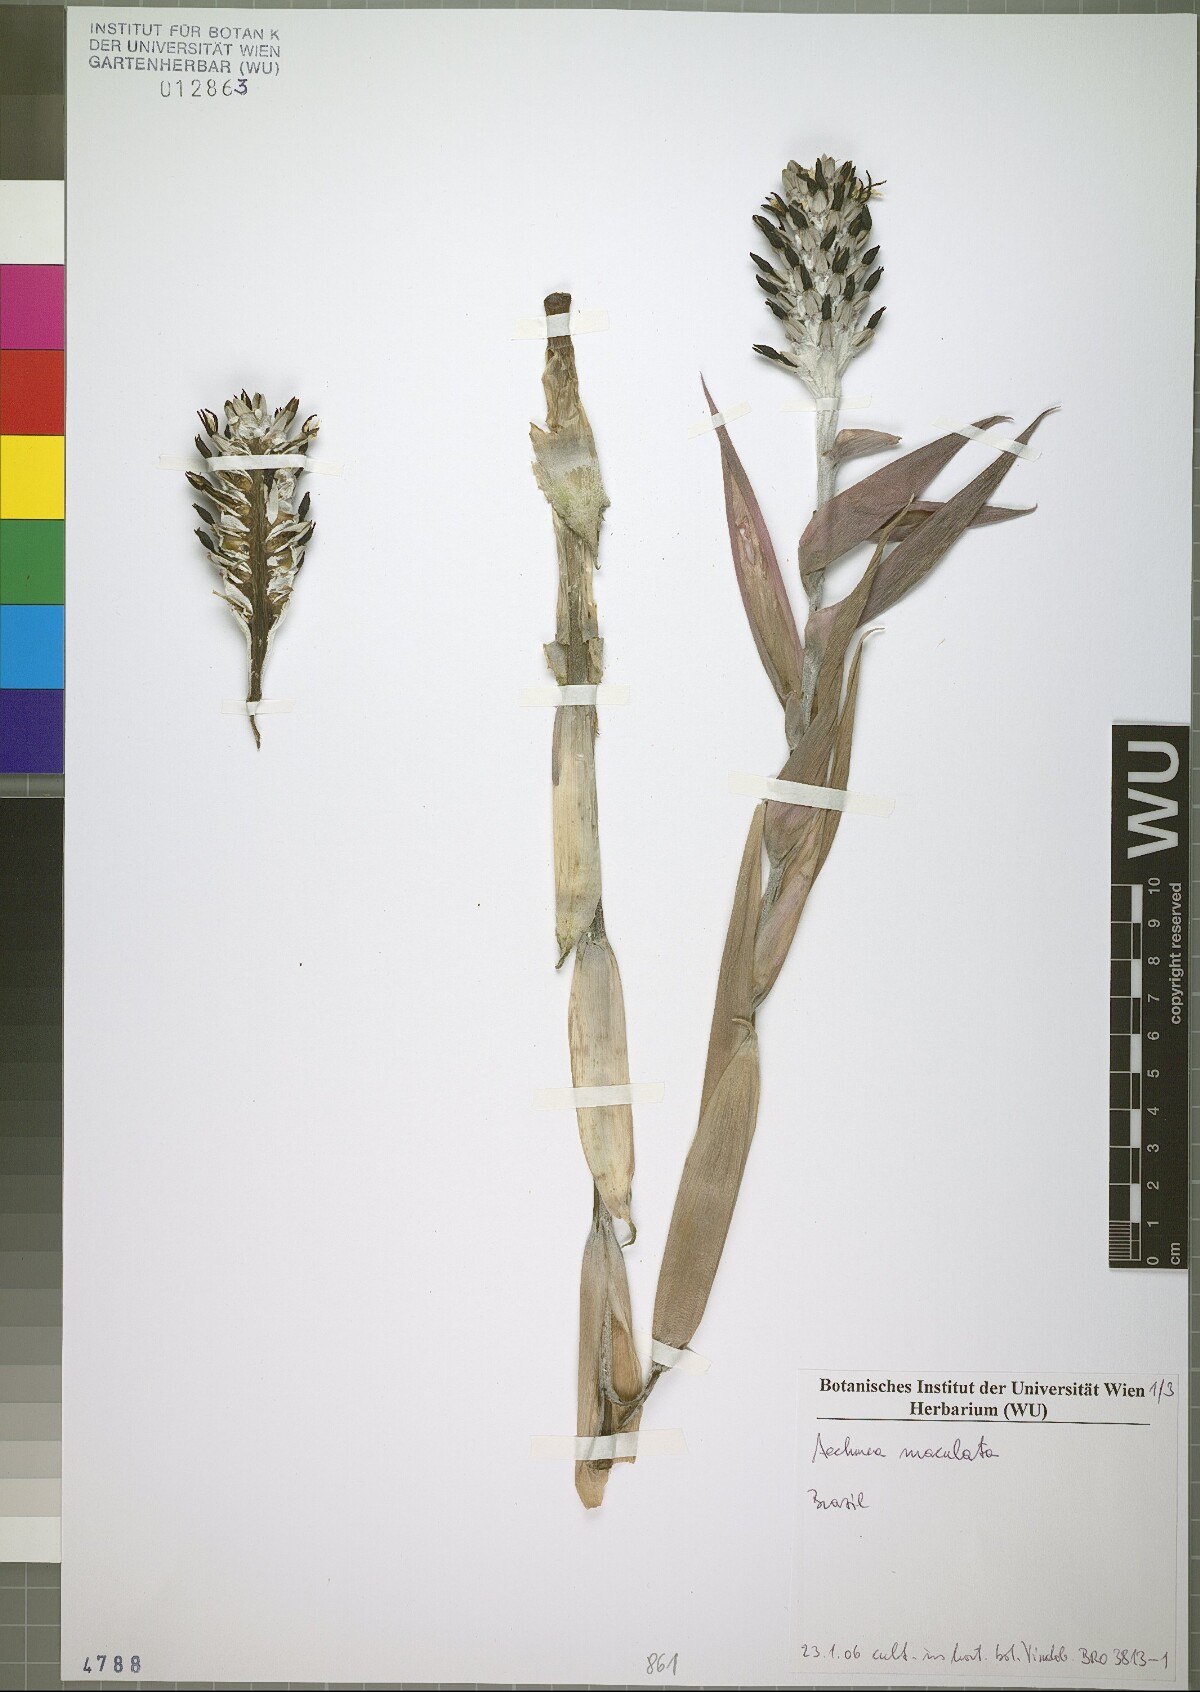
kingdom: Plantae
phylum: Tracheophyta
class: Liliopsida
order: Poales
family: Bromeliaceae
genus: Aechmea
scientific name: Aechmea maculata
